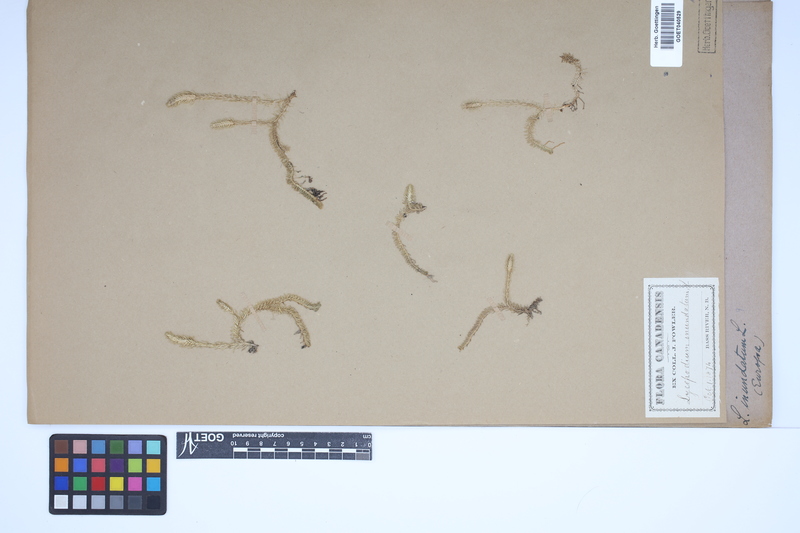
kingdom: Plantae
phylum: Tracheophyta
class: Lycopodiopsida
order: Lycopodiales
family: Lycopodiaceae
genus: Lycopodiella
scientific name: Lycopodiella inundata
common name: Marsh clubmoss
